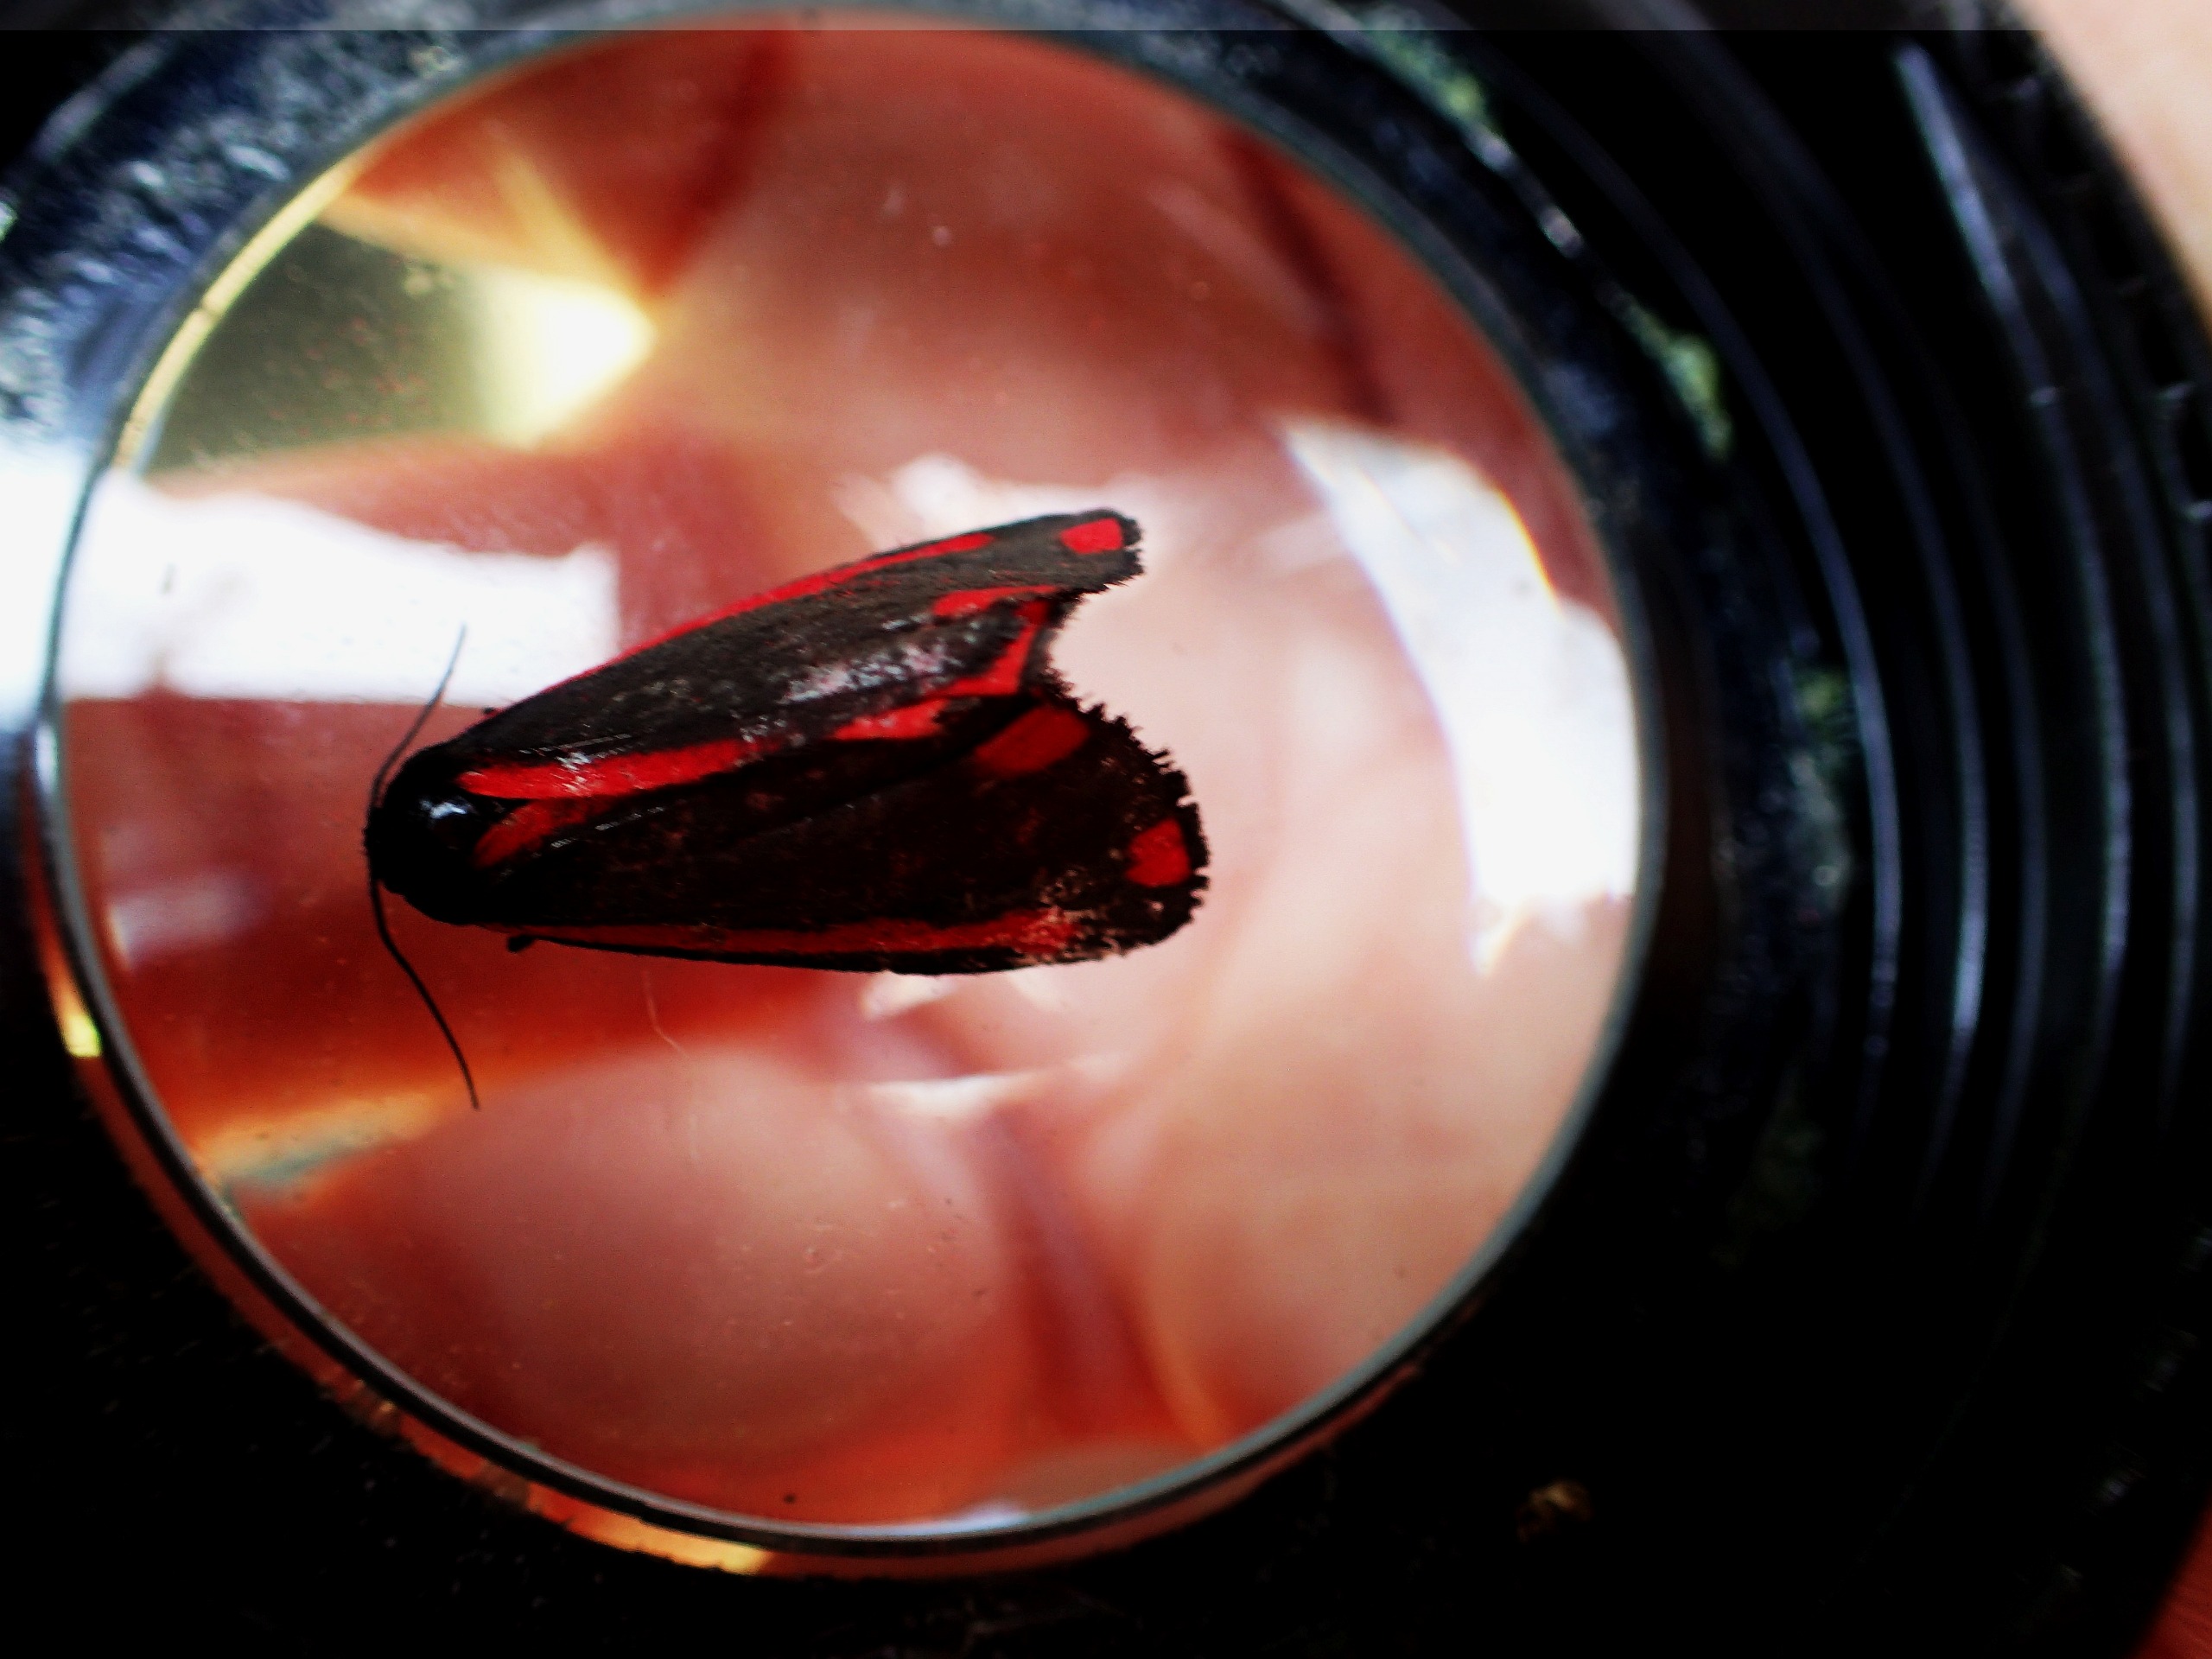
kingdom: Animalia
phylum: Arthropoda
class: Insecta
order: Lepidoptera
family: Erebidae
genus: Tyria
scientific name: Tyria jacobaeae
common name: Blodplet
